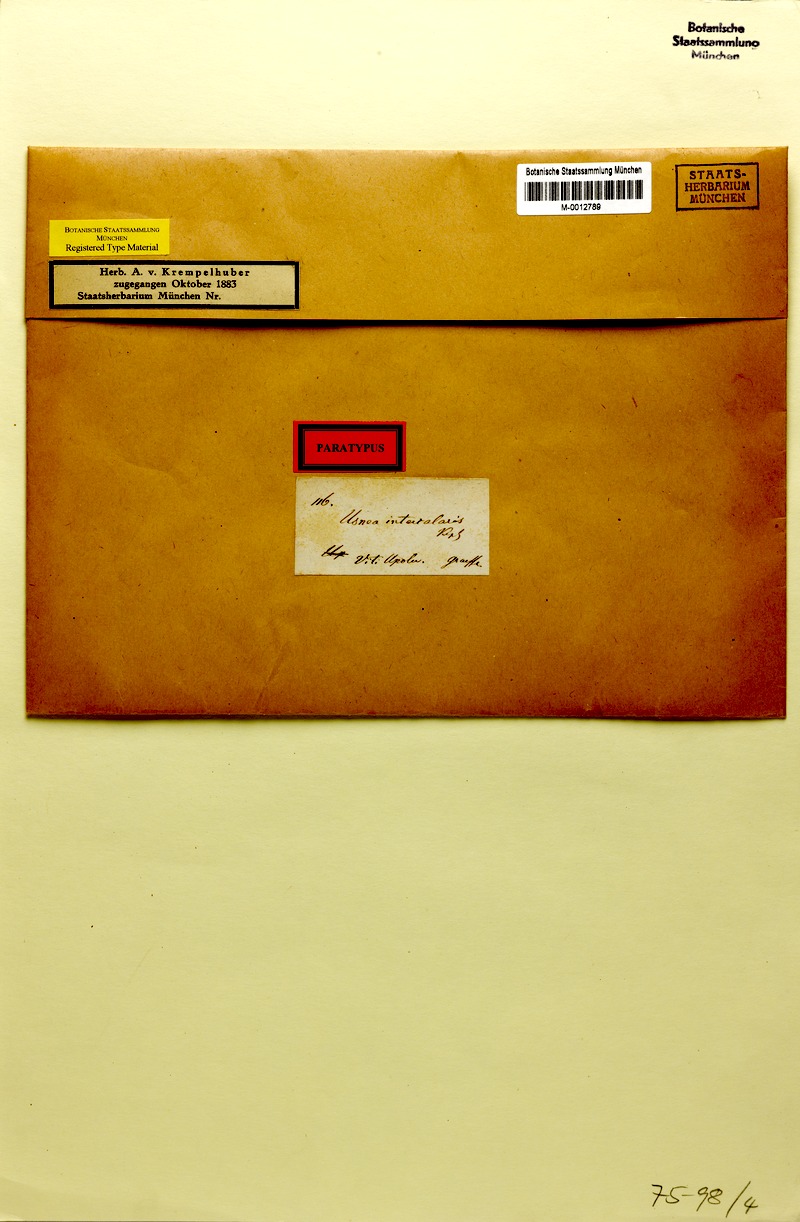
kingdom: Fungi
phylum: Ascomycota
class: Lecanoromycetes
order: Lecanorales
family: Parmeliaceae
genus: Usnea
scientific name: Usnea nidifica
